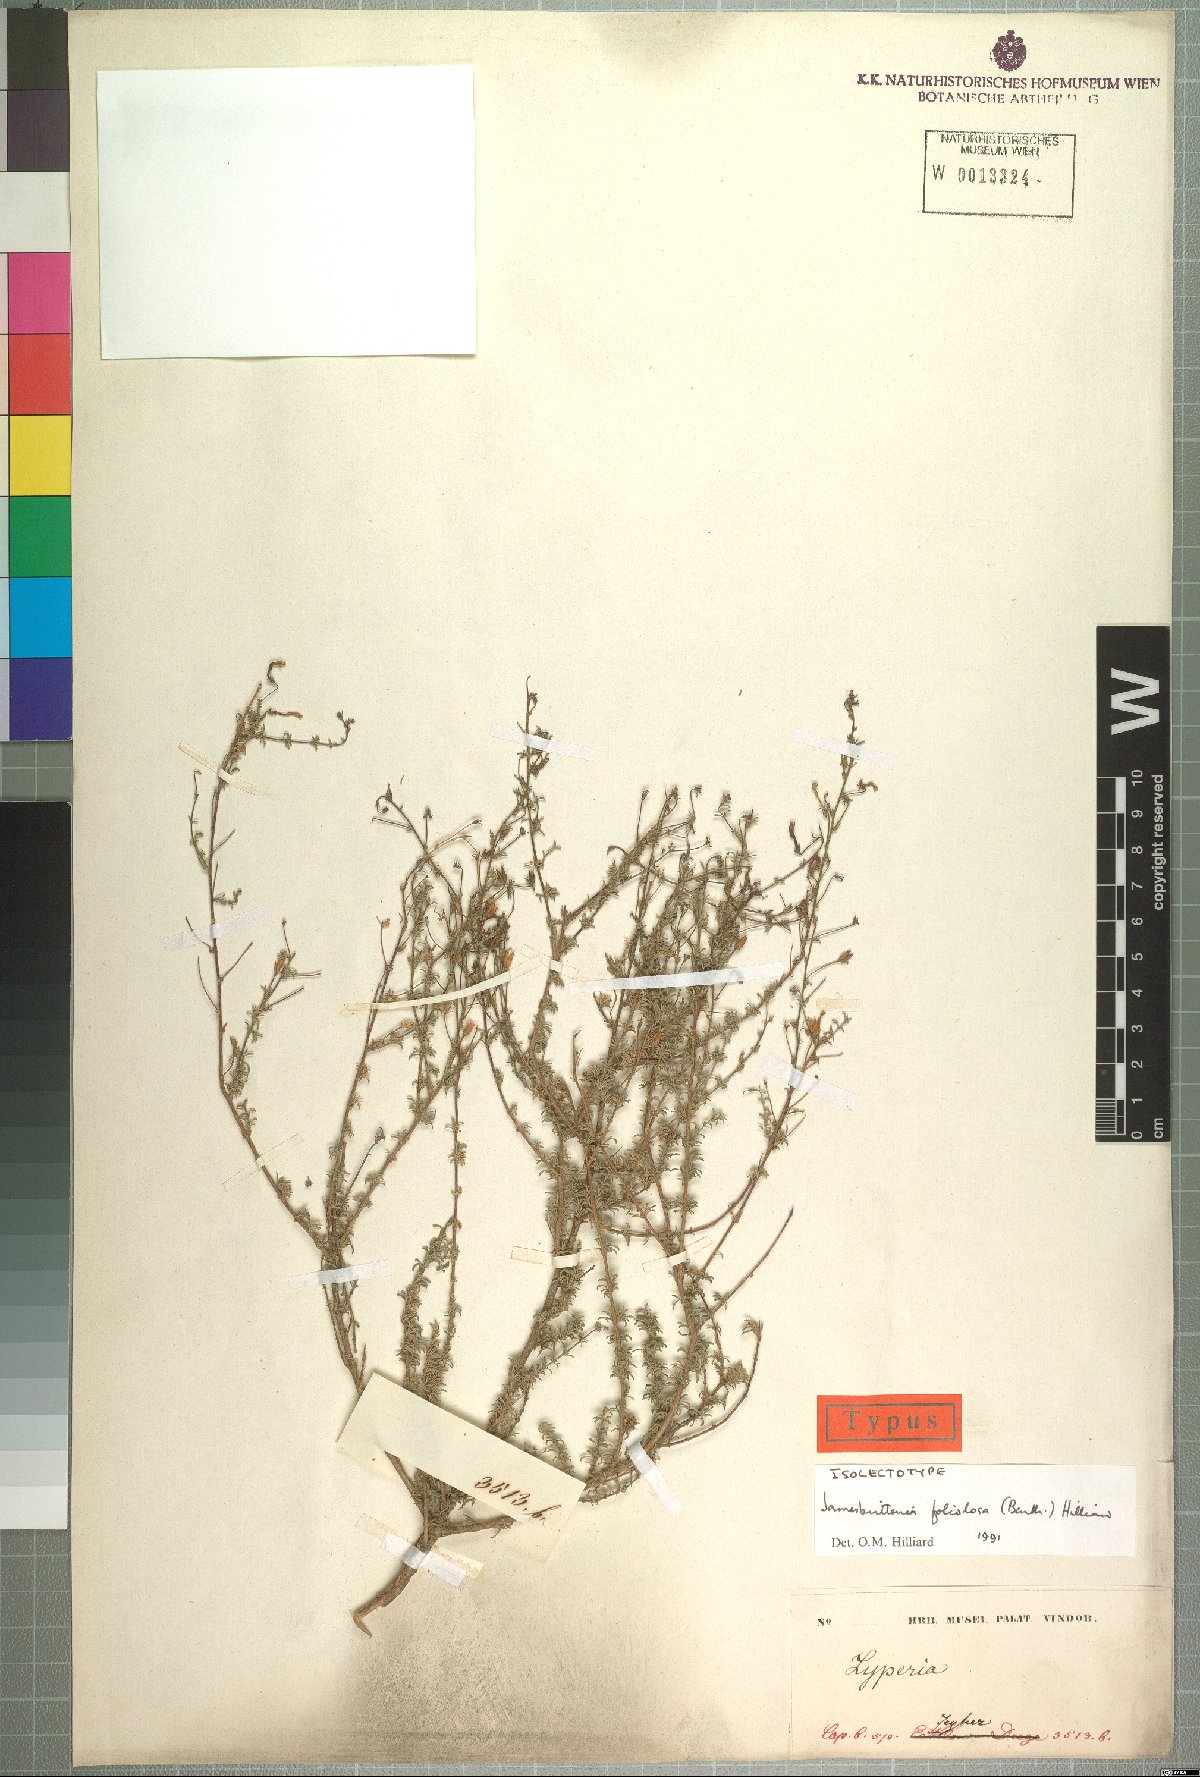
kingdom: Plantae
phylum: Tracheophyta
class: Magnoliopsida
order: Lamiales
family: Scrophulariaceae
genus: Jamesbrittenia
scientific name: Jamesbrittenia foliolosa
